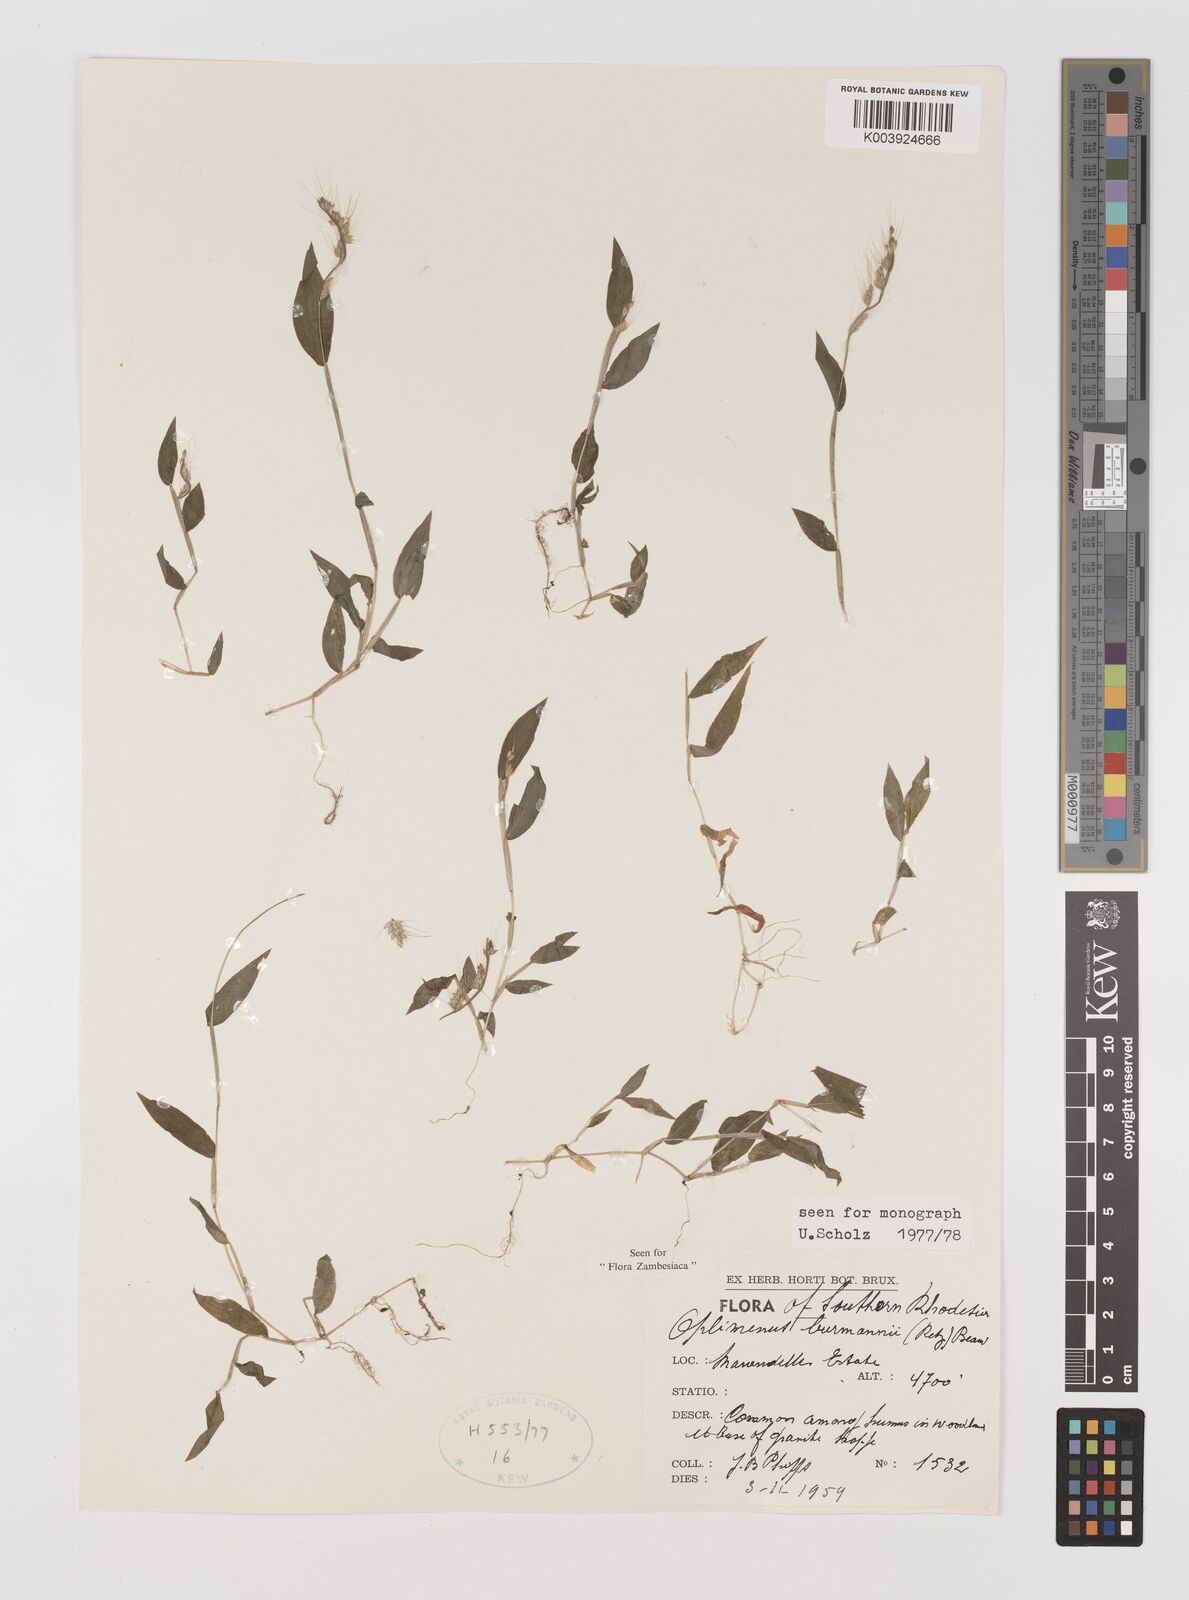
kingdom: Plantae
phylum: Tracheophyta
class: Liliopsida
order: Poales
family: Poaceae
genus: Oplismenus
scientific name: Oplismenus burmanni
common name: Burmann's basketgrass
